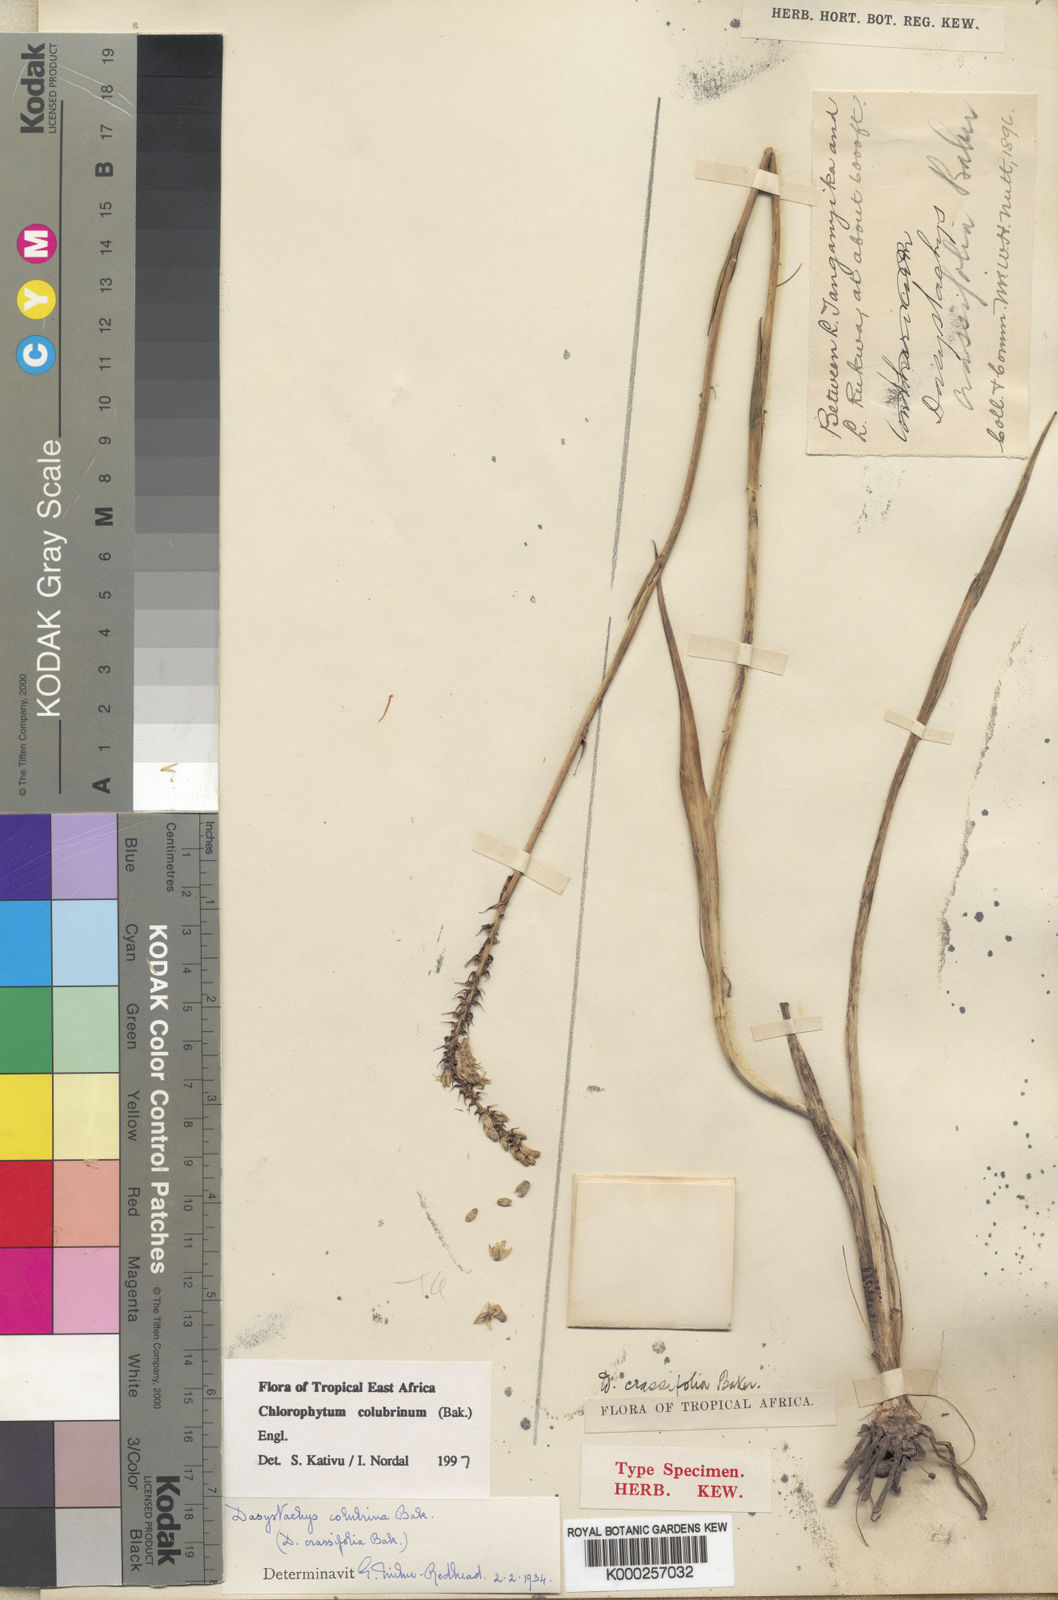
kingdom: Plantae
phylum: Tracheophyta
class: Liliopsida
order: Asparagales
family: Asparagaceae
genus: Chlorophytum
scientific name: Chlorophytum colubrinum
